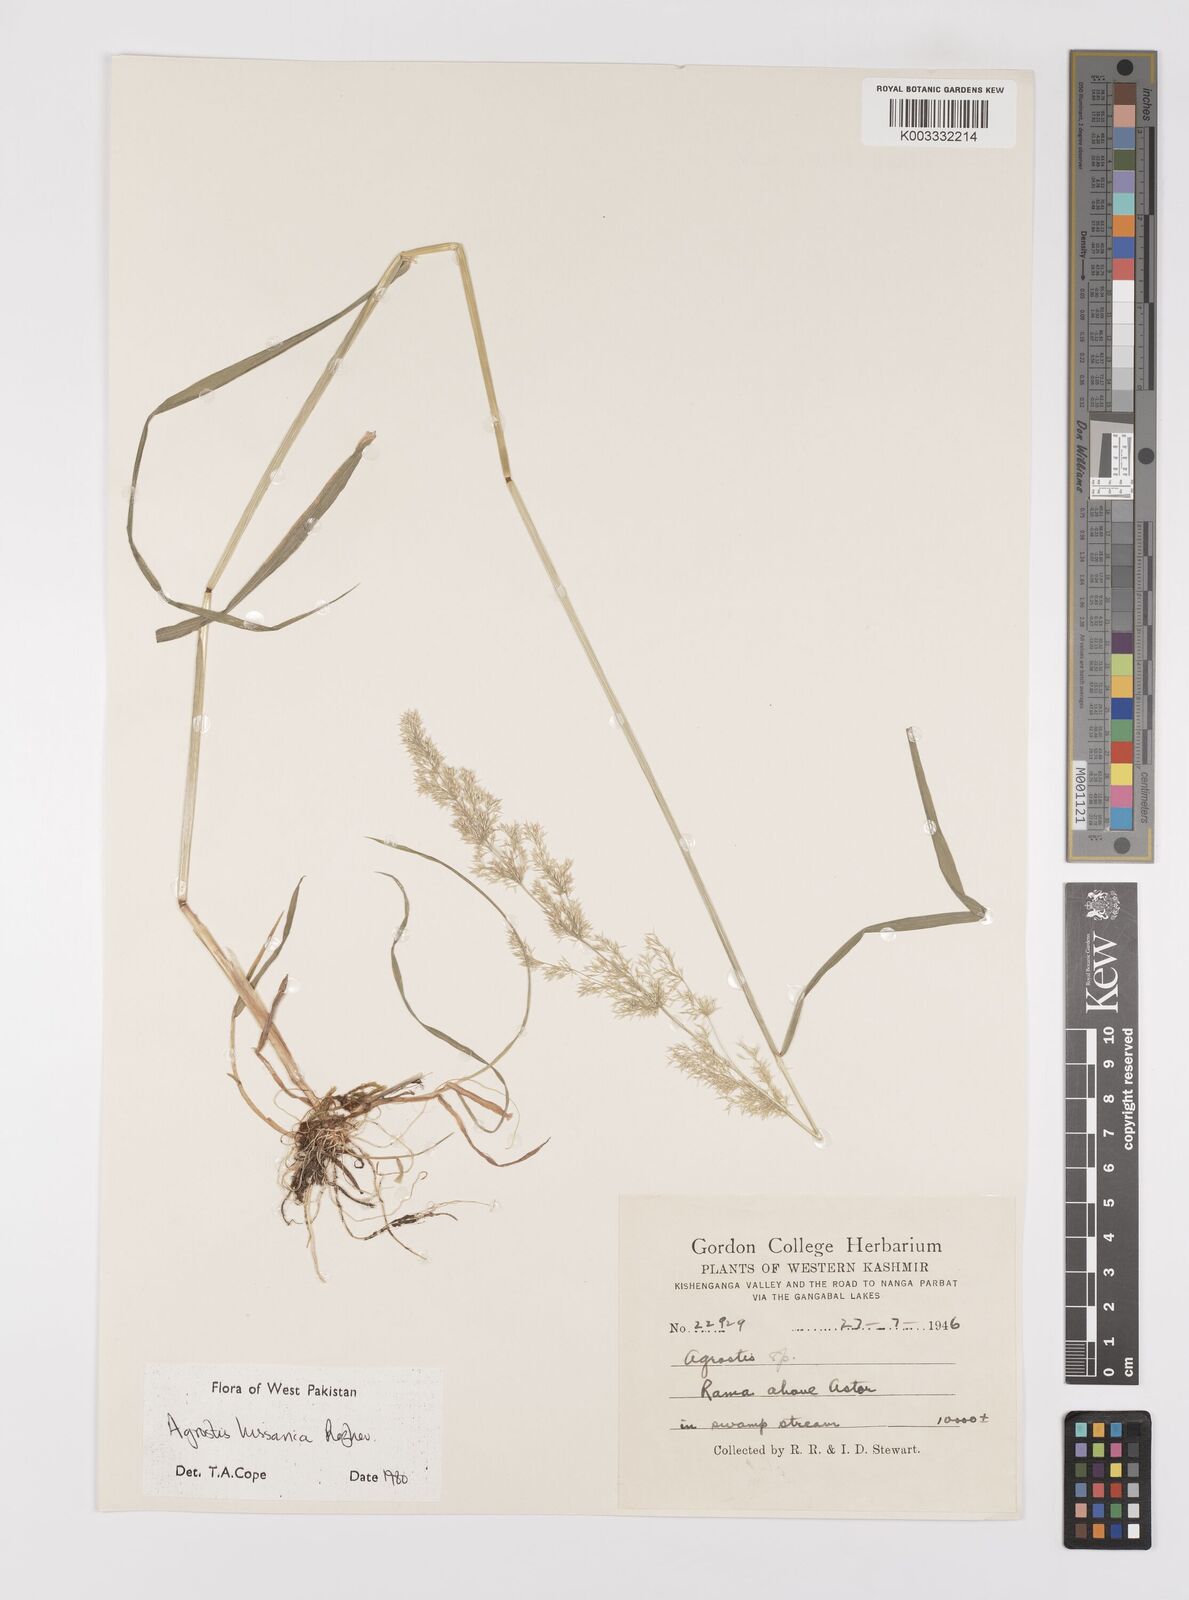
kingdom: Plantae
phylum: Tracheophyta
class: Liliopsida
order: Poales
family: Poaceae
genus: Polypogon
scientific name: Polypogon hissaricus
